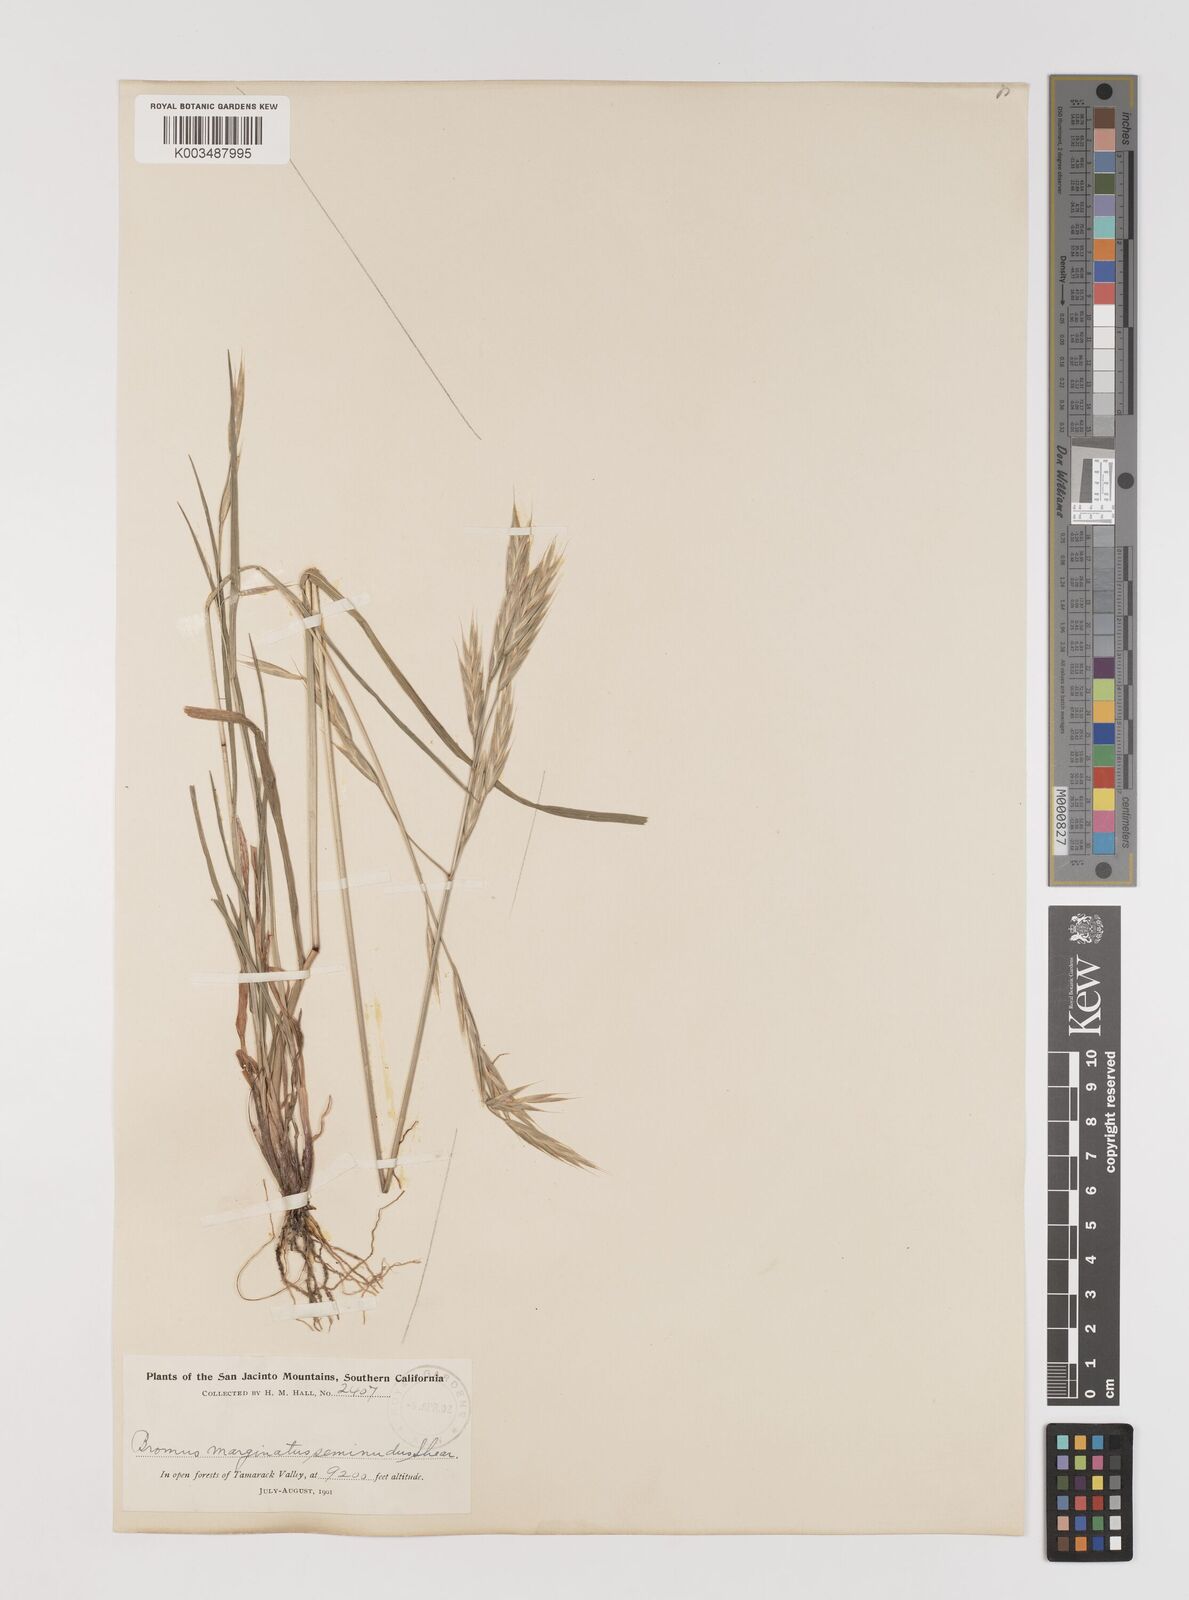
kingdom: Plantae
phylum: Tracheophyta
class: Liliopsida
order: Poales
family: Poaceae
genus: Bromus
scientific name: Bromus marginatus
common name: Western brome
